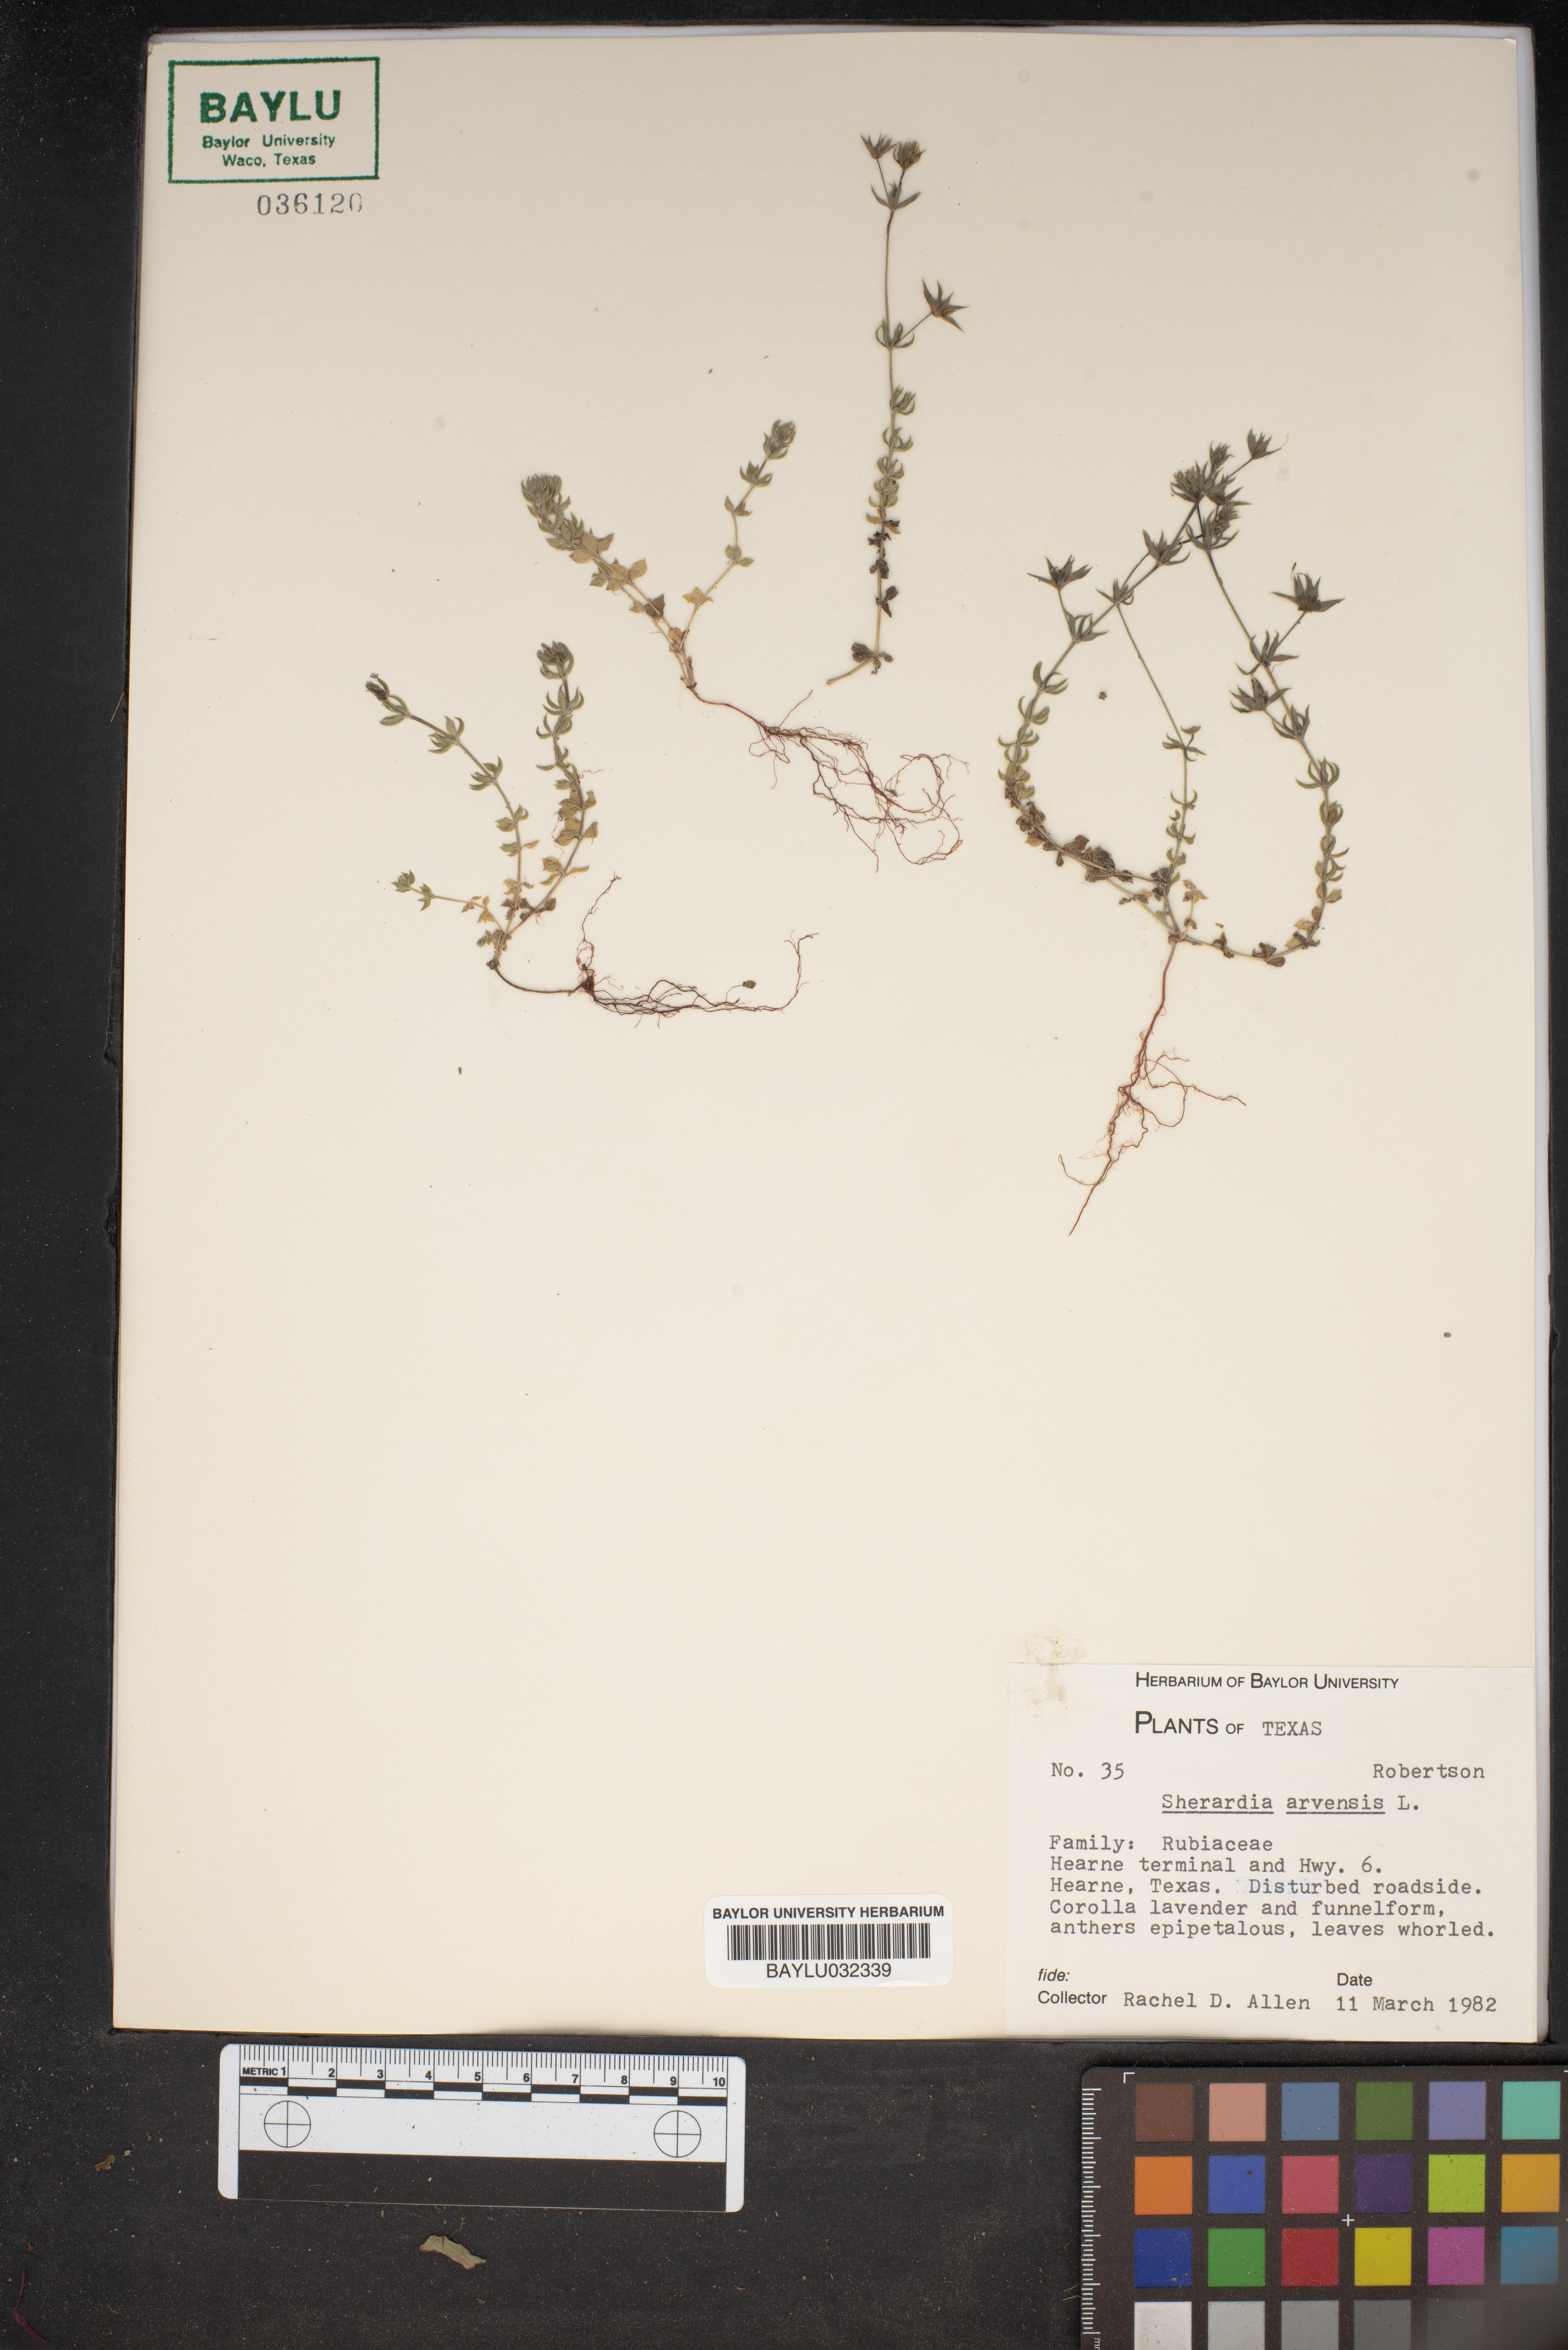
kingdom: Plantae
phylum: Tracheophyta
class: Magnoliopsida
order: Gentianales
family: Rubiaceae
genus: Sherardia
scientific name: Sherardia arvensis
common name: Field madder
